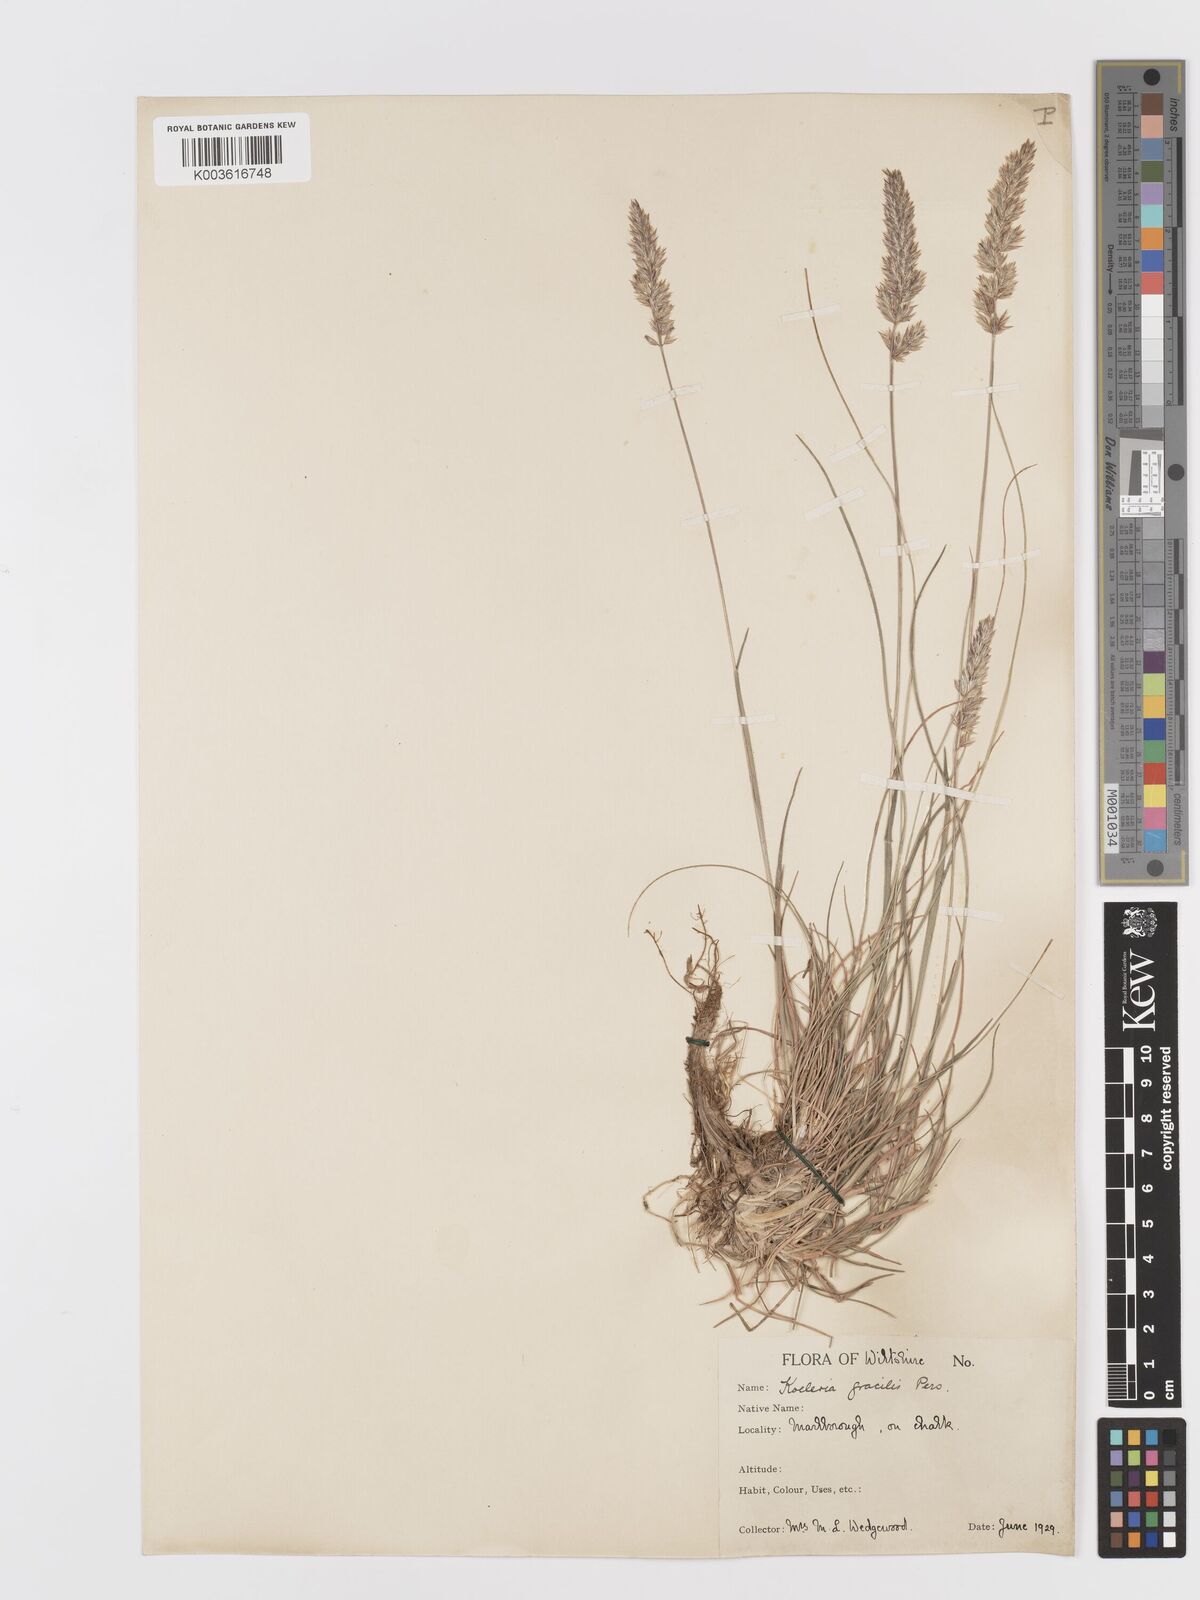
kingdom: Plantae
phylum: Tracheophyta
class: Liliopsida
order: Poales
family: Poaceae
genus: Koeleria
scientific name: Koeleria
